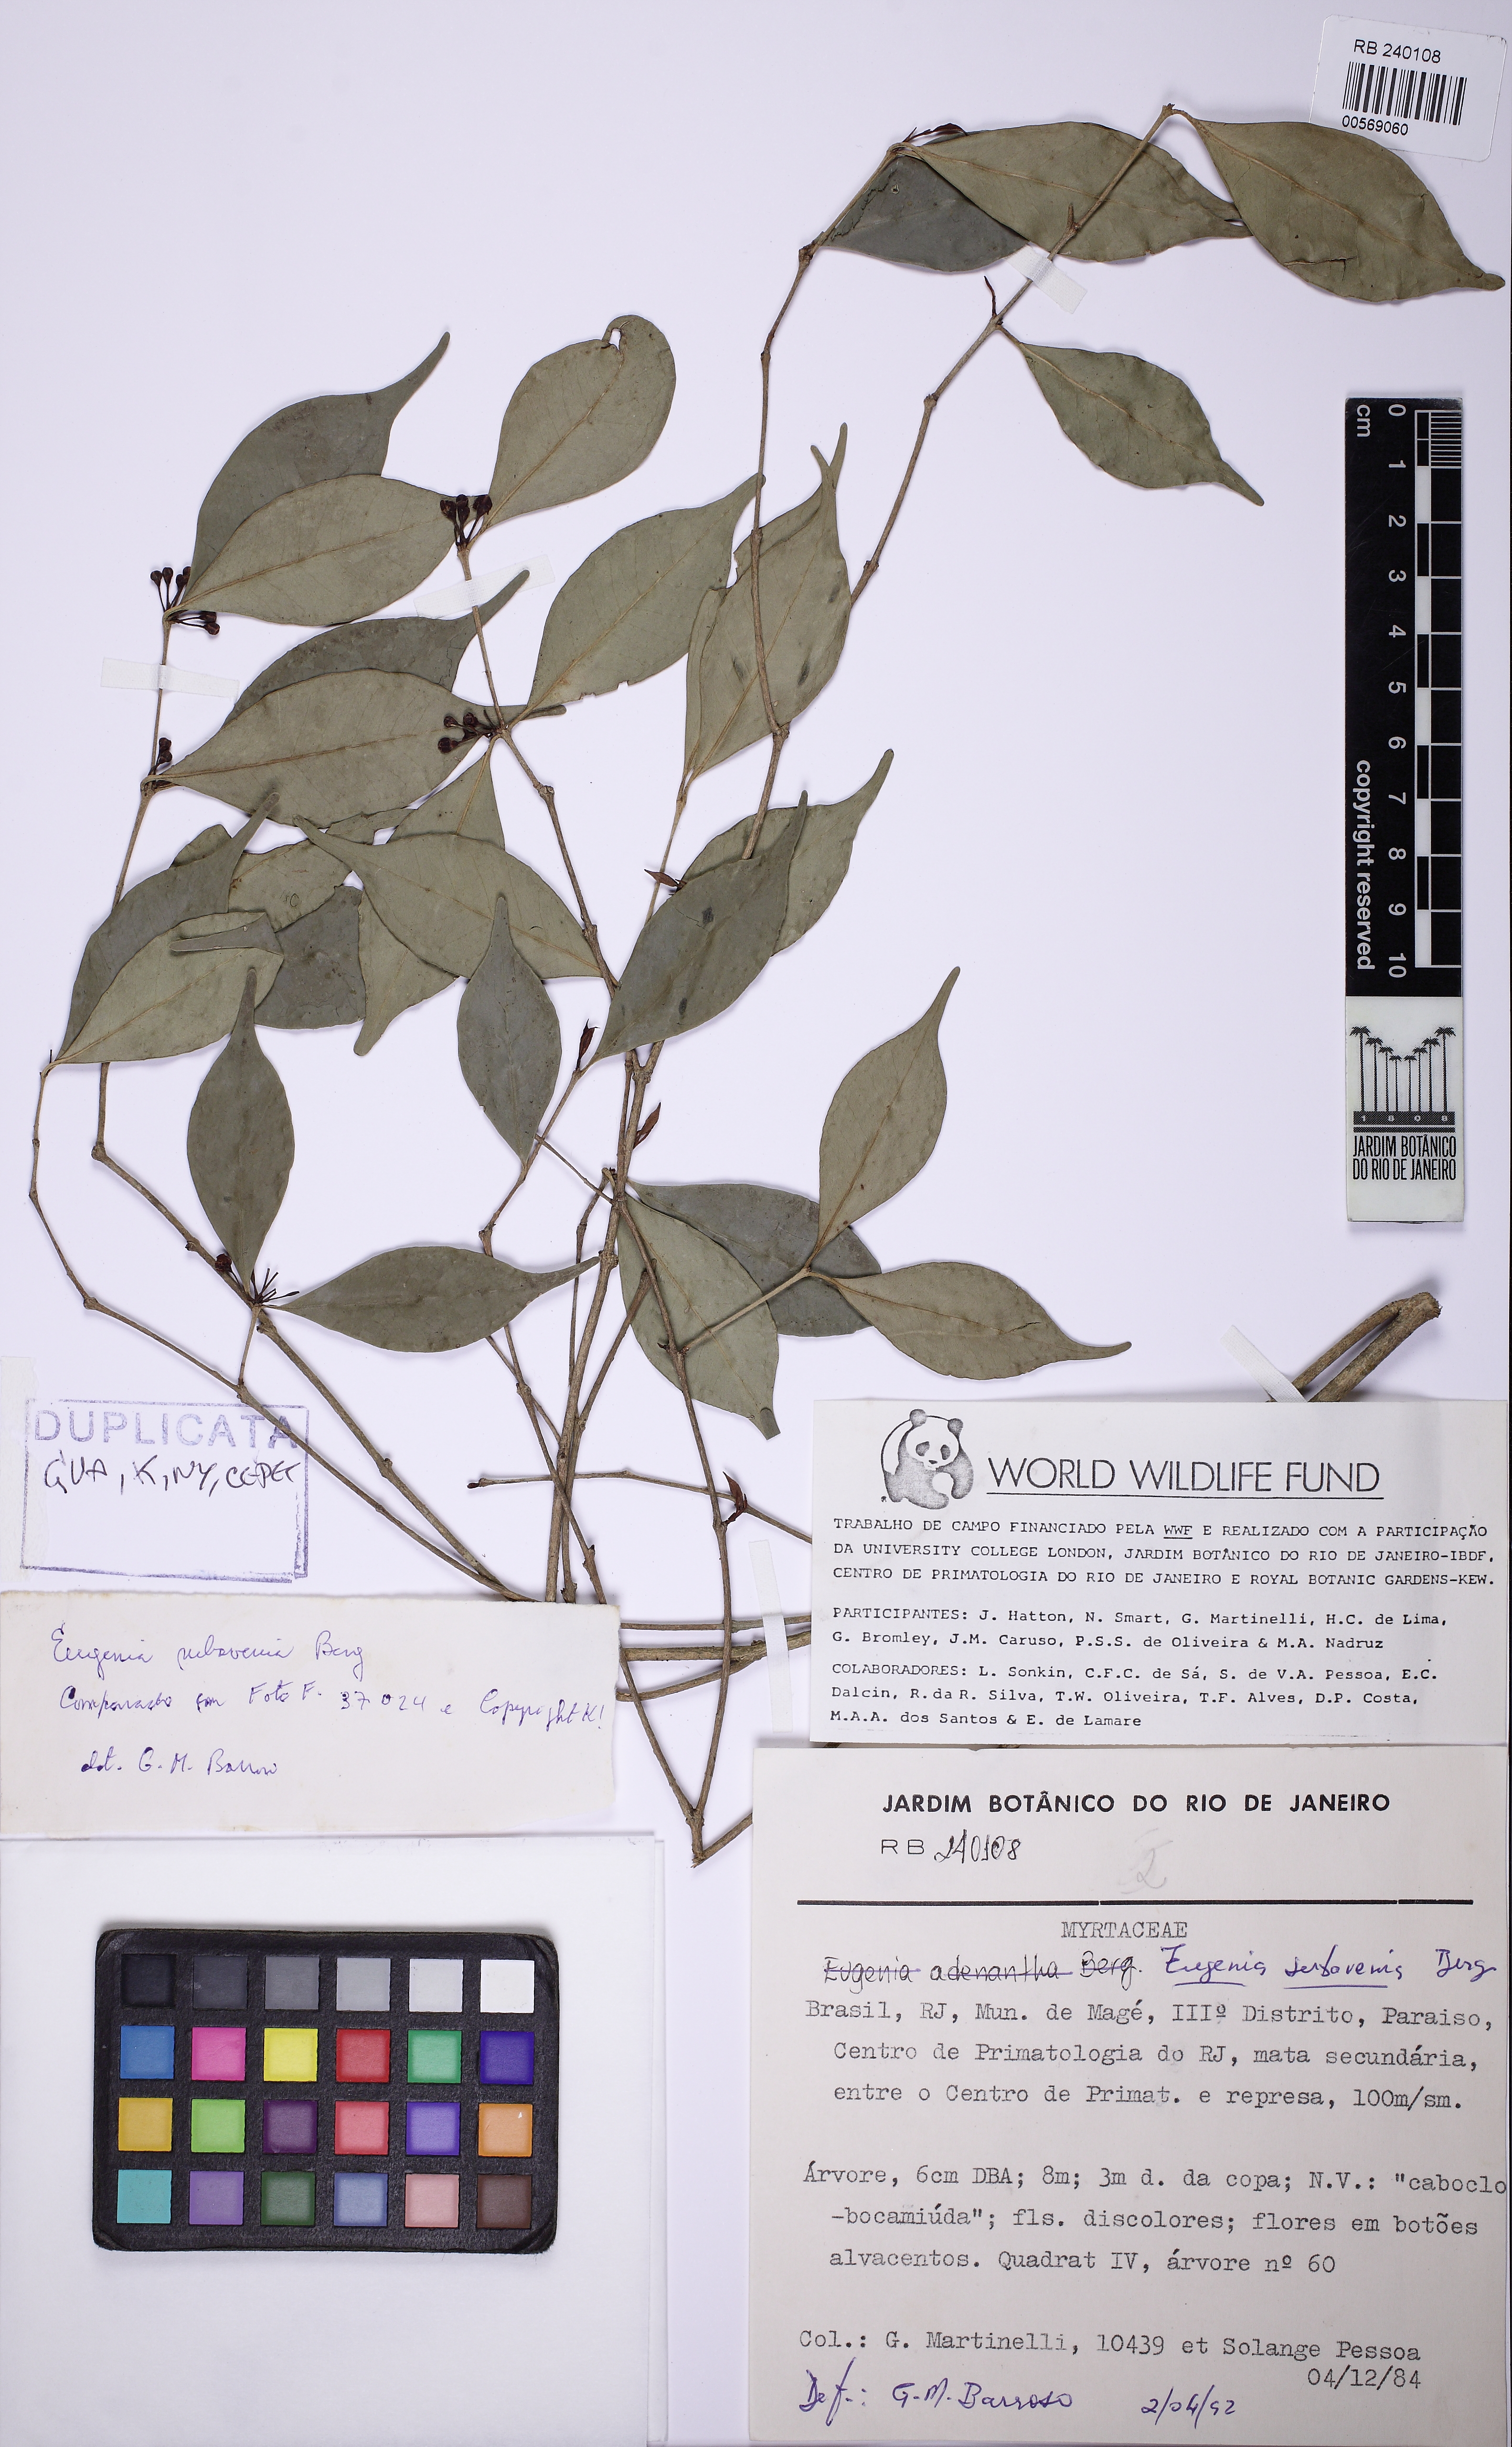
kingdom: Plantae
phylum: Tracheophyta
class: Magnoliopsida
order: Myrtales
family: Myrtaceae
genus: Eugenia
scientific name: Eugenia subavenia
